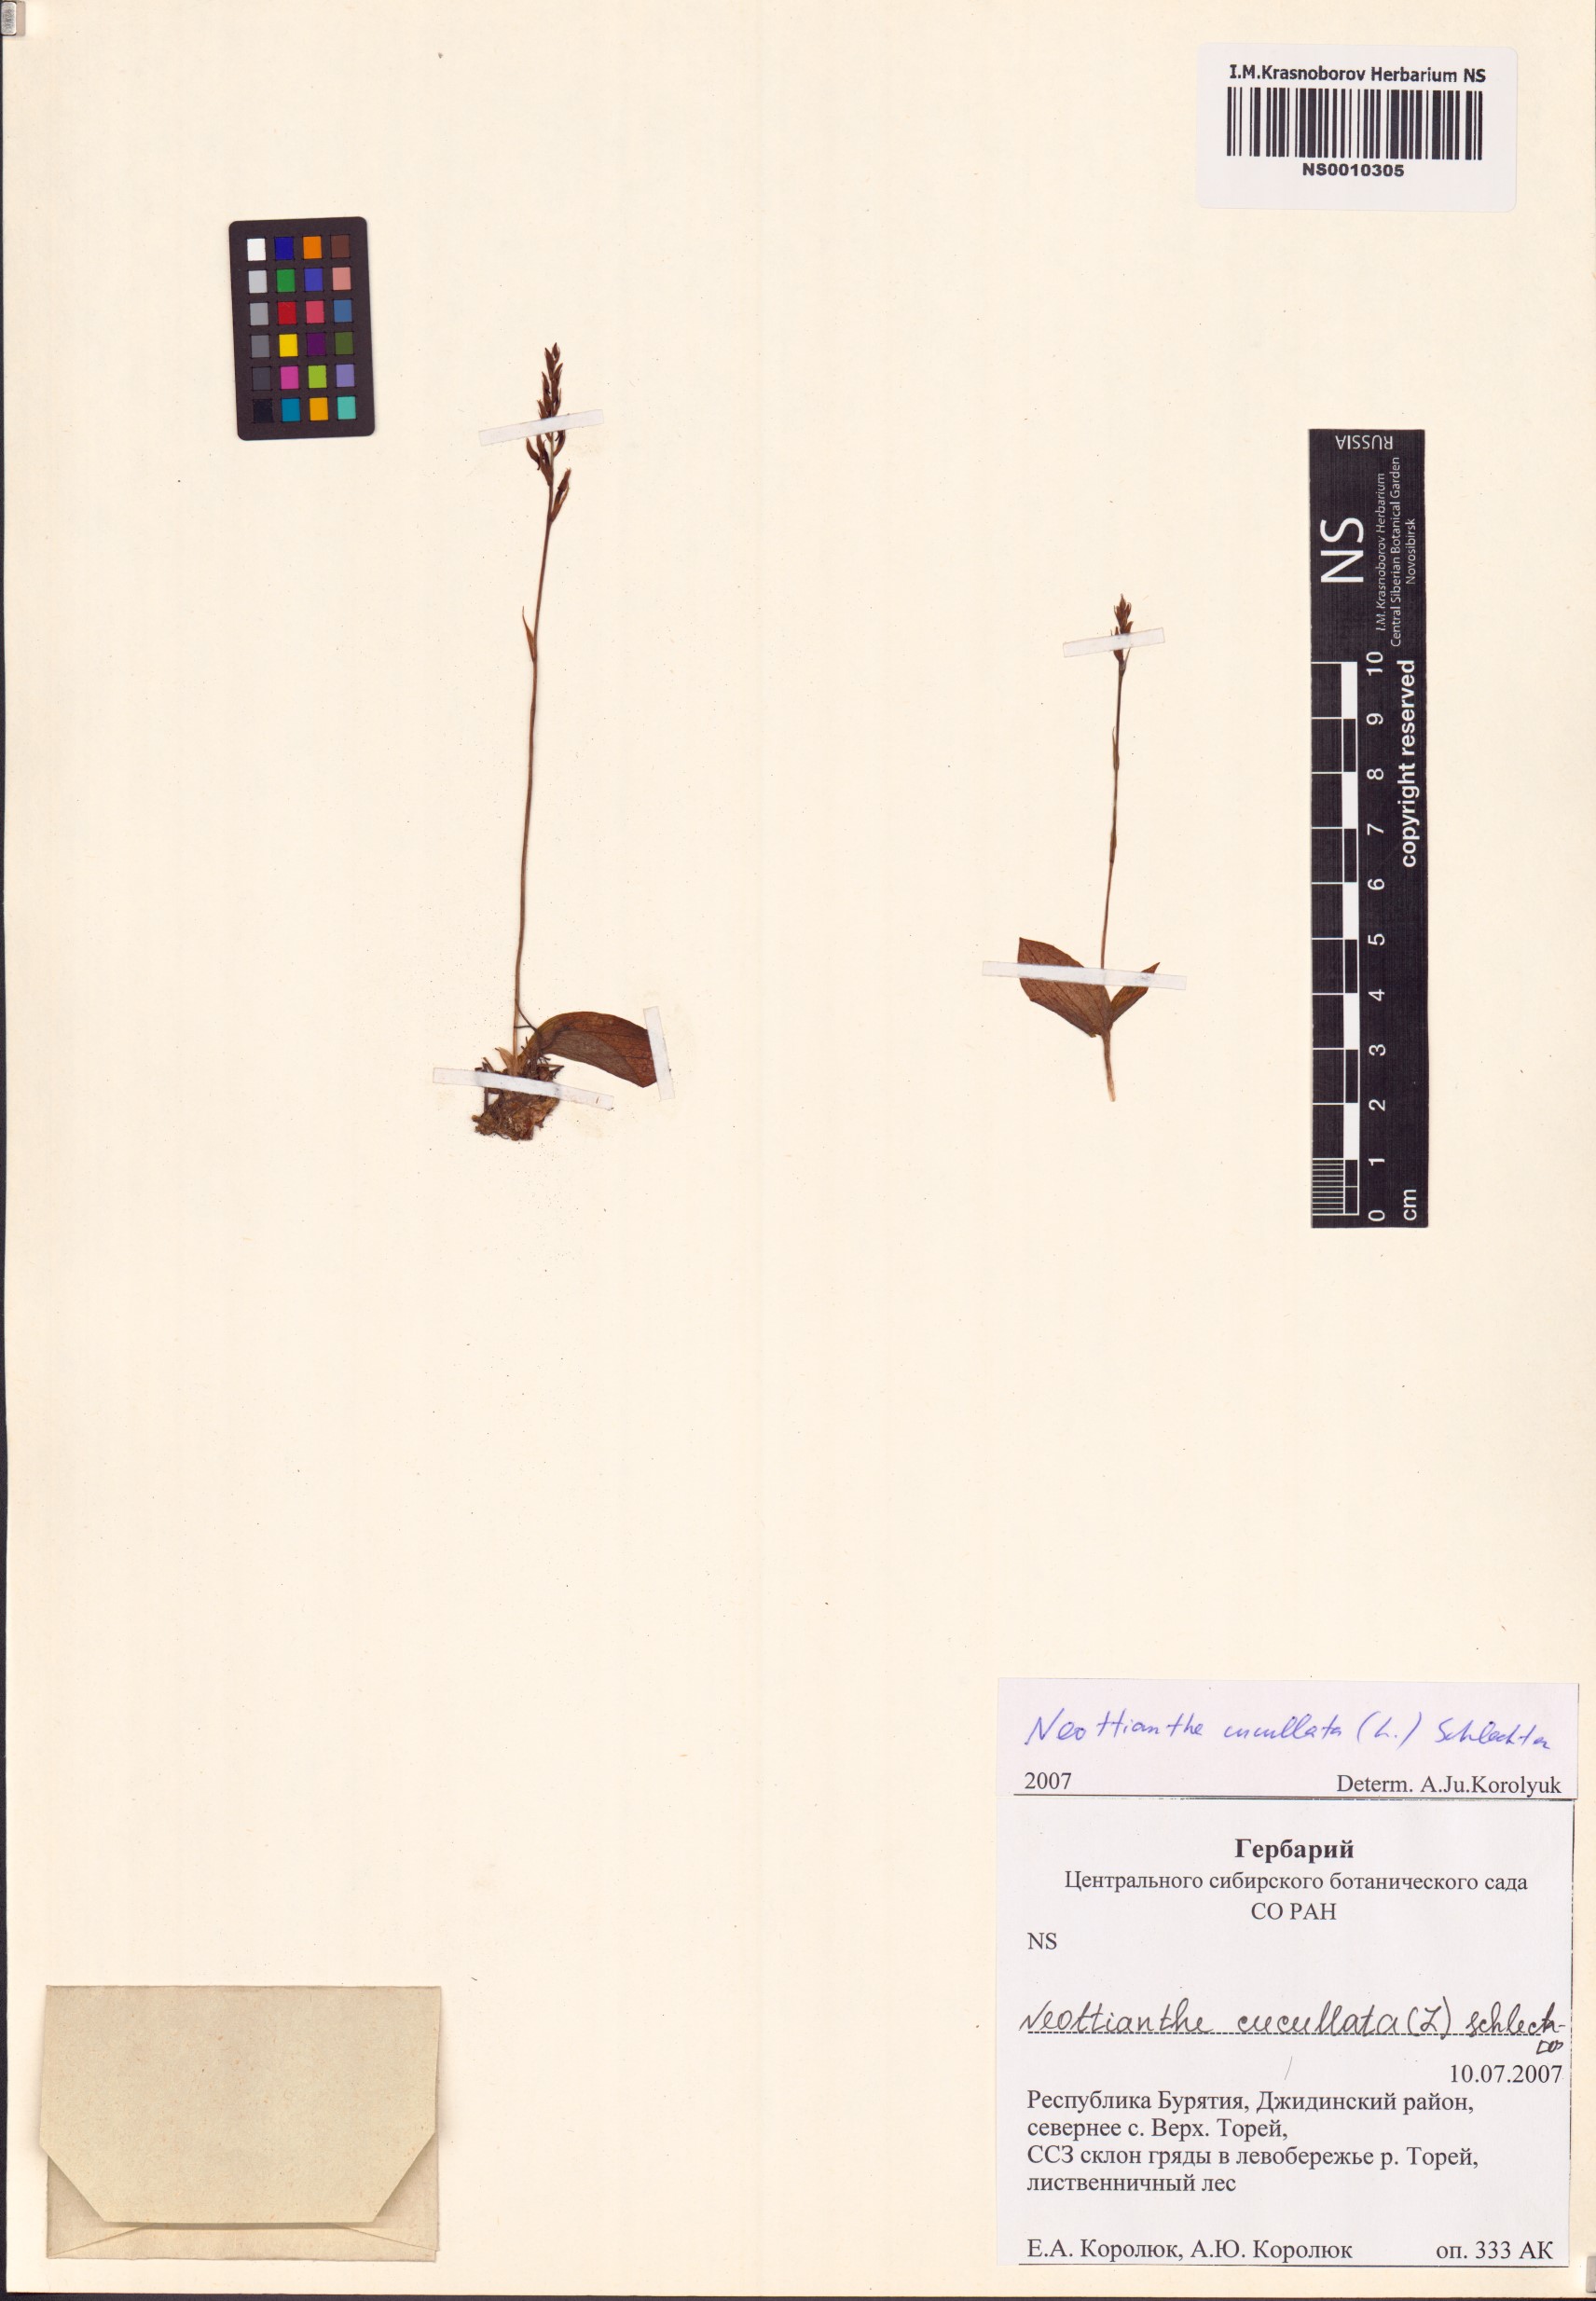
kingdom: Plantae
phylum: Tracheophyta
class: Liliopsida
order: Asparagales
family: Orchidaceae
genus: Hemipilia
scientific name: Hemipilia cucullata
